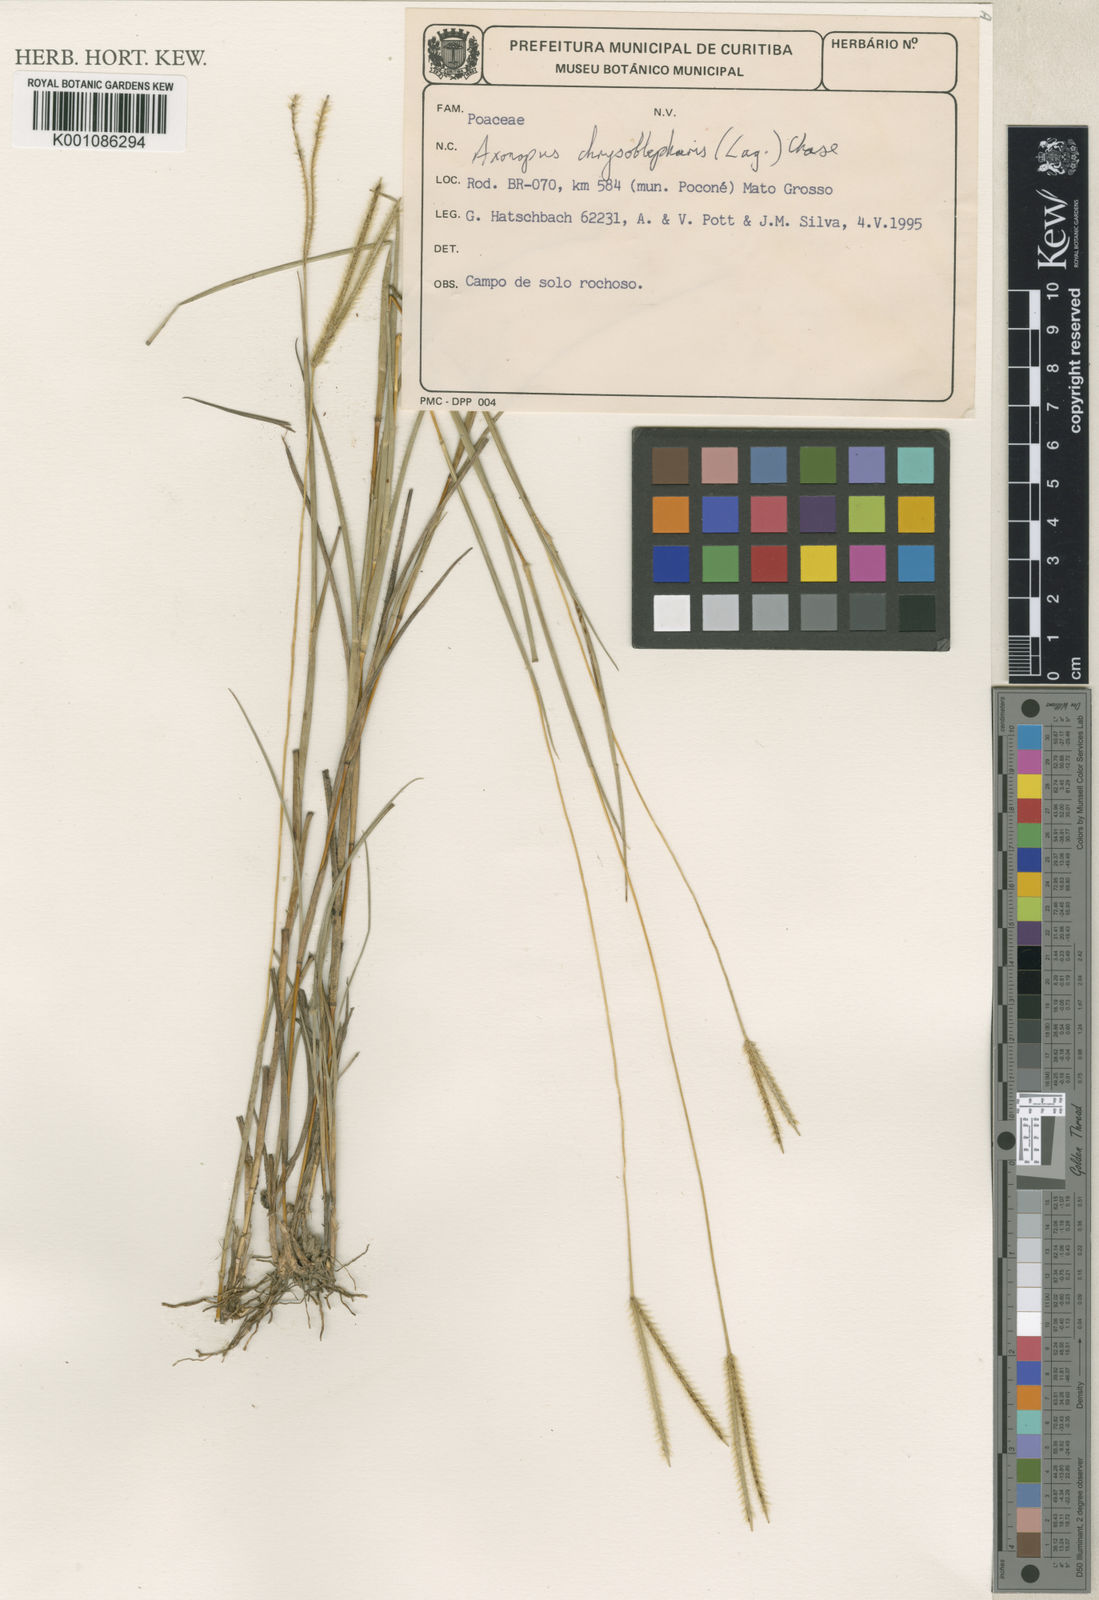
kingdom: Plantae
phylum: Tracheophyta
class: Liliopsida
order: Poales
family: Poaceae
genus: Axonopus
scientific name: Axonopus chrysoblepharis
